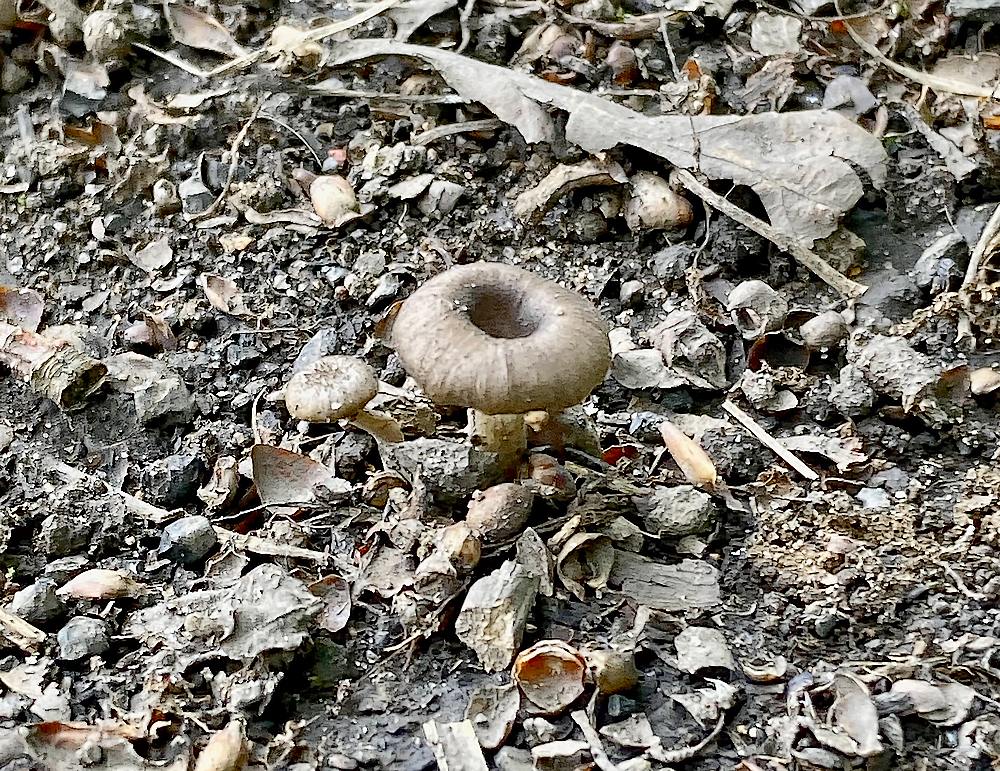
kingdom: Fungi
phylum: Basidiomycota
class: Agaricomycetes
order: Polyporales
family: Polyporaceae
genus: Faerberia
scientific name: Faerberia carbonaria
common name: kulkantarel
